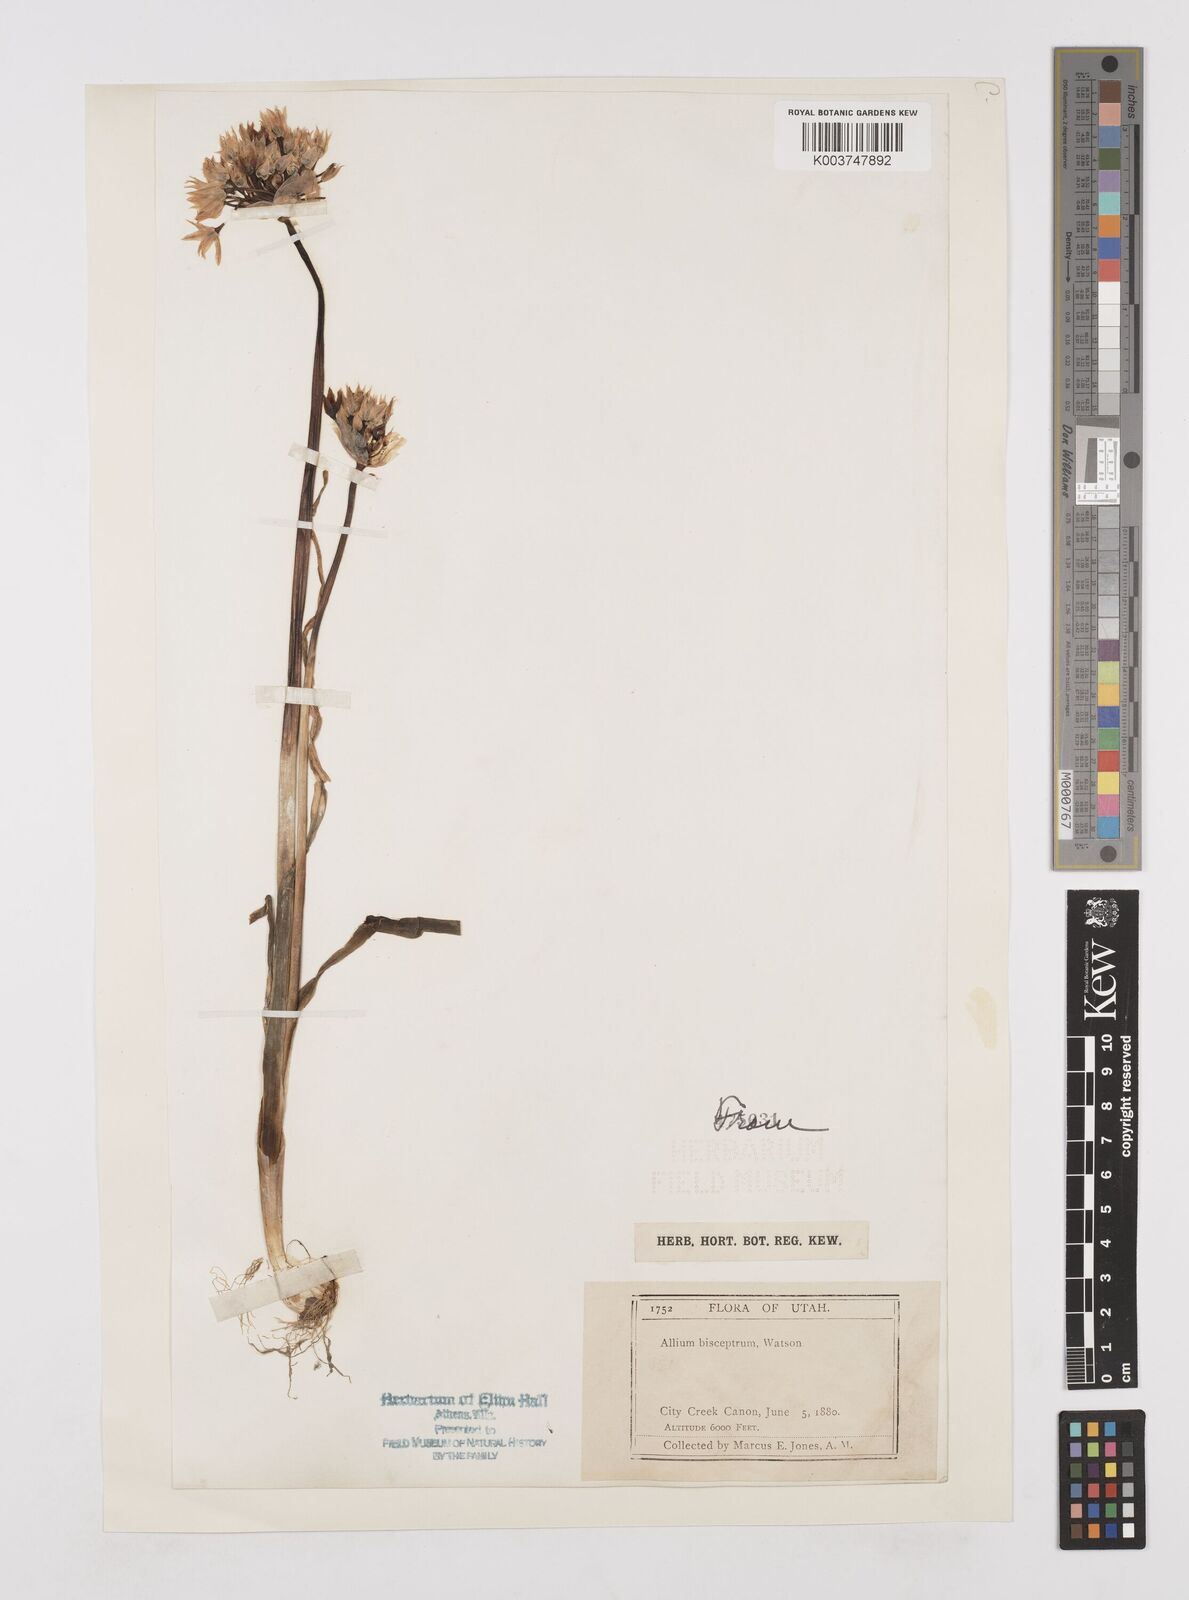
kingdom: Plantae
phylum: Tracheophyta
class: Liliopsida
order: Asparagales
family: Amaryllidaceae
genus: Allium
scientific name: Allium bisceptrum
